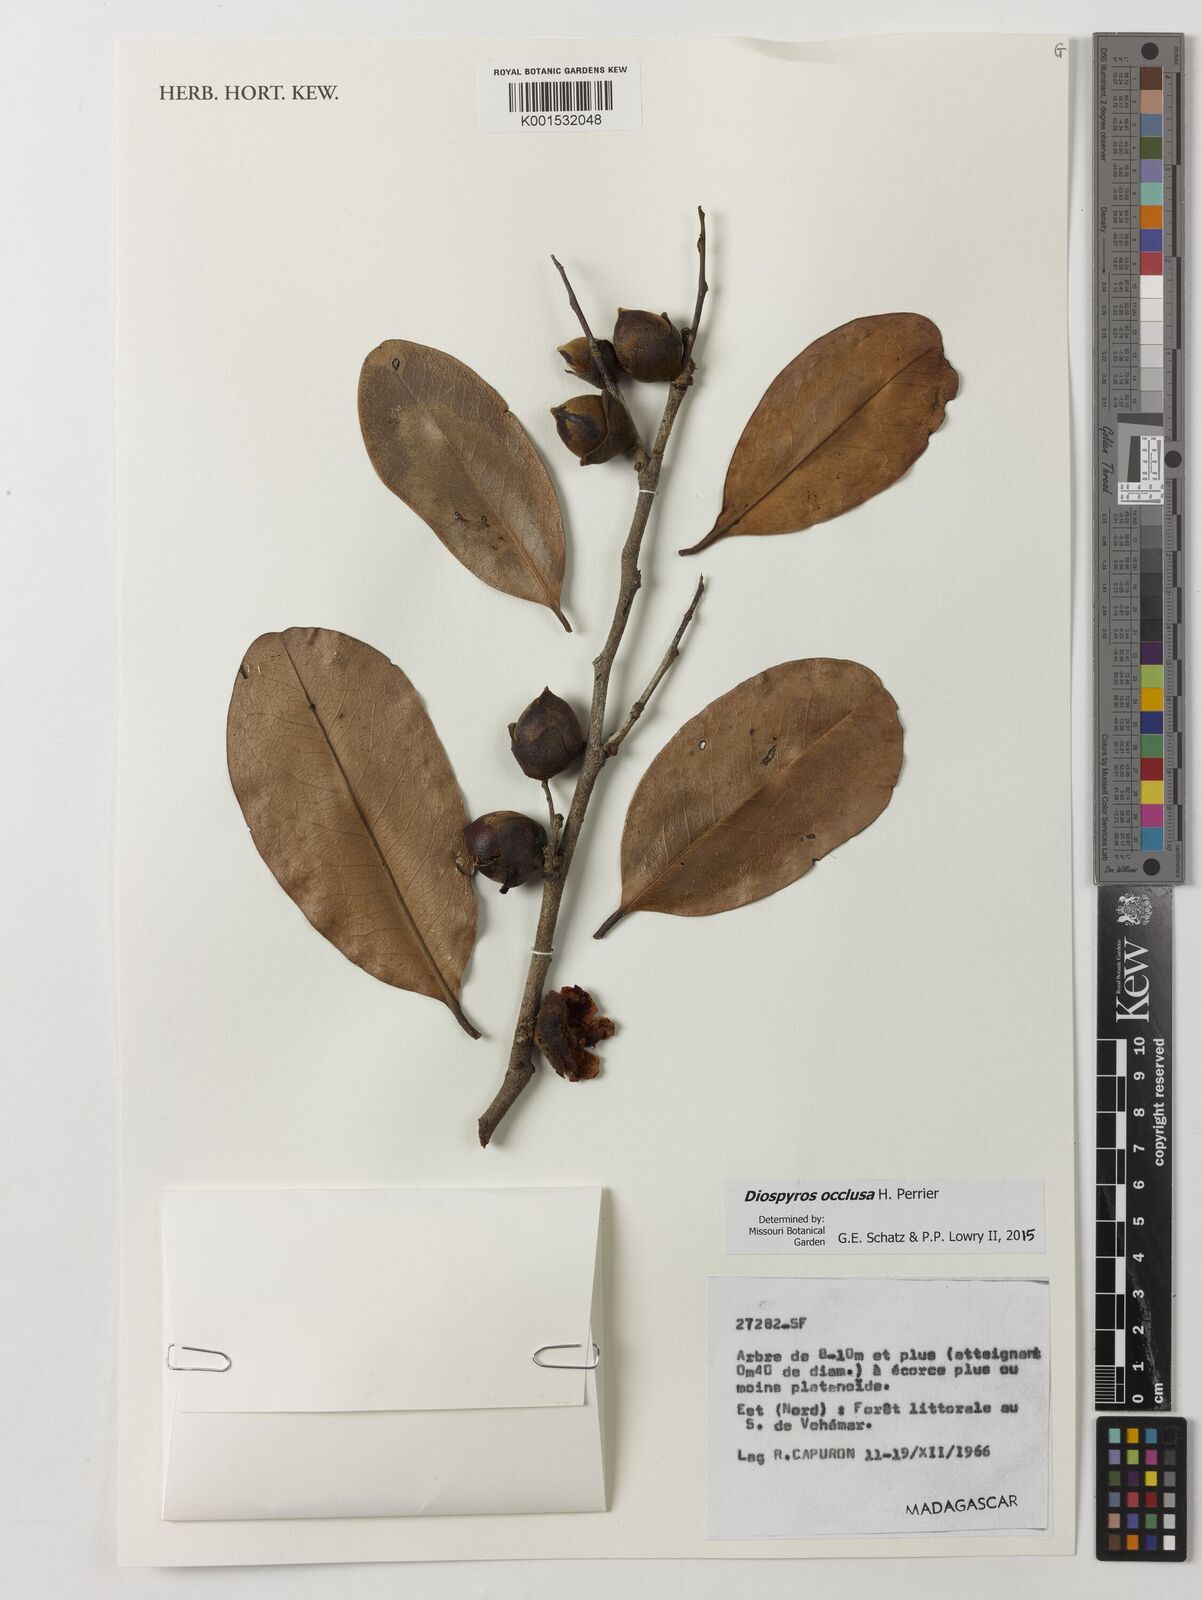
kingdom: Plantae
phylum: Tracheophyta
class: Magnoliopsida
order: Ericales
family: Ebenaceae
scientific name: Ebenaceae
